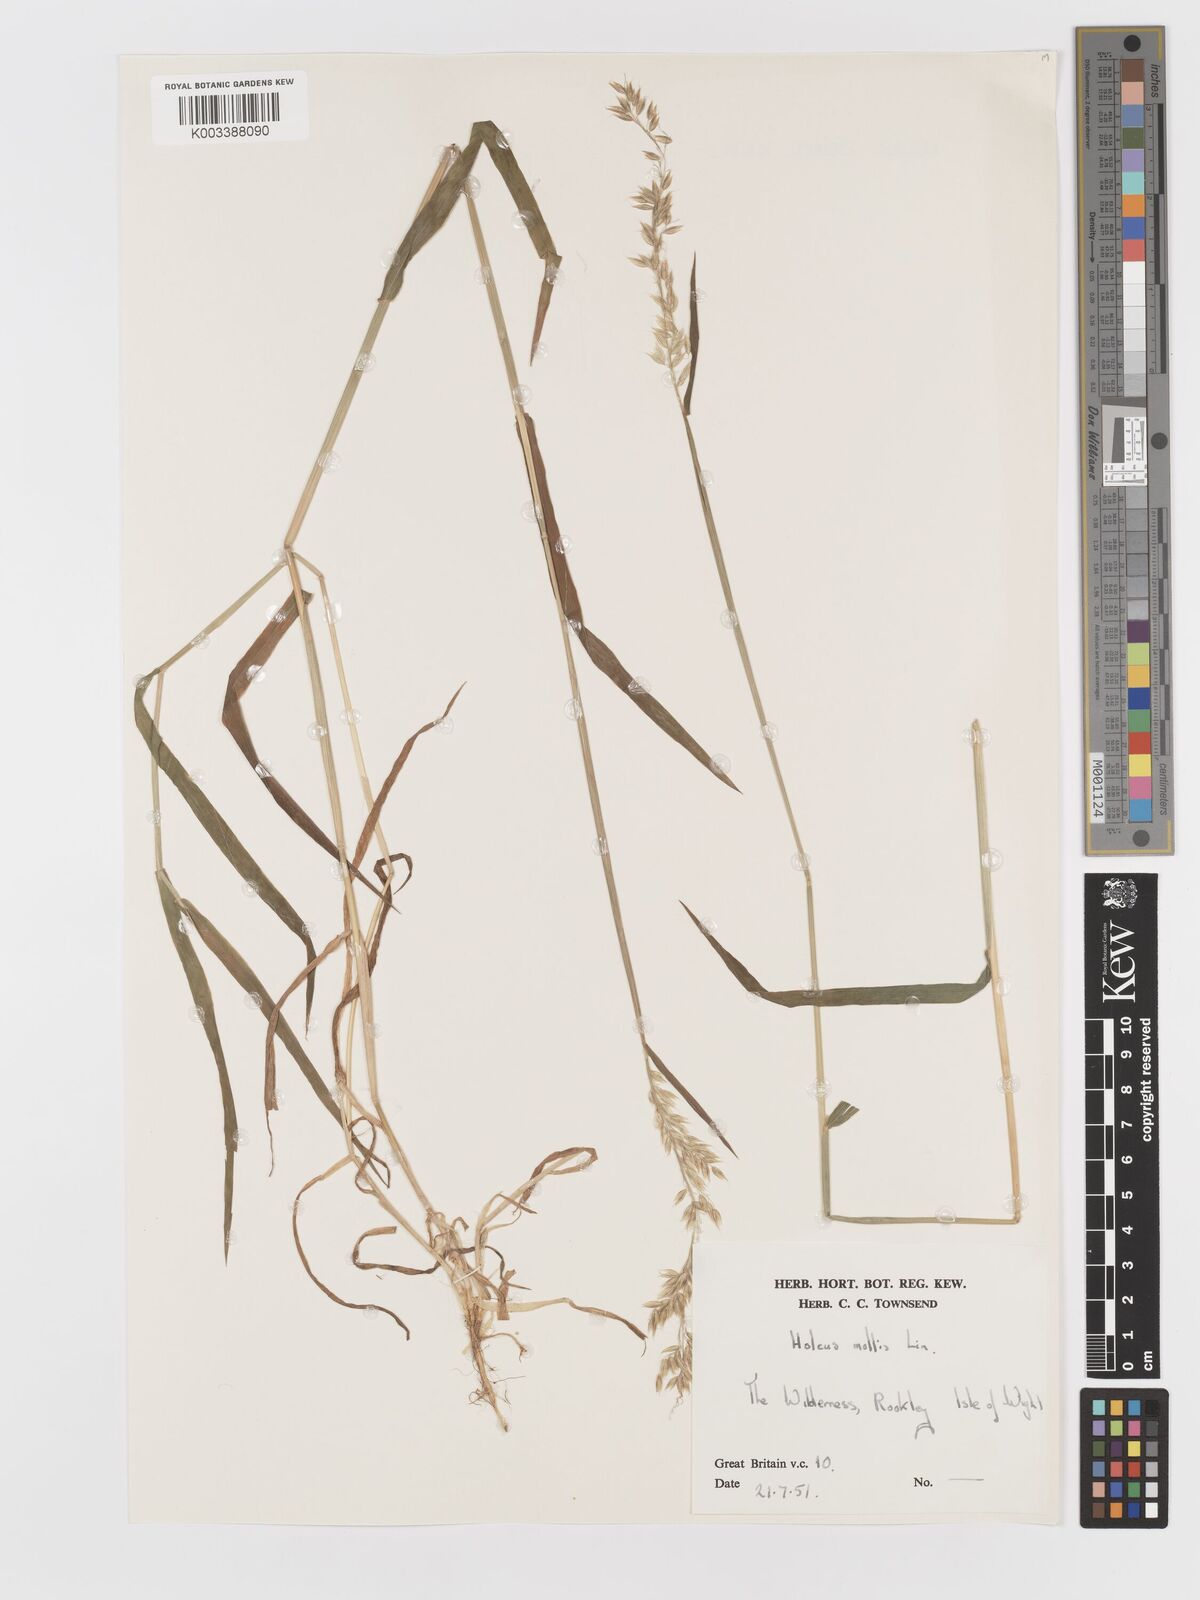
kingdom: Plantae
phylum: Tracheophyta
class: Liliopsida
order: Poales
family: Poaceae
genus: Holcus
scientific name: Holcus mollis
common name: Creeping velvetgrass
